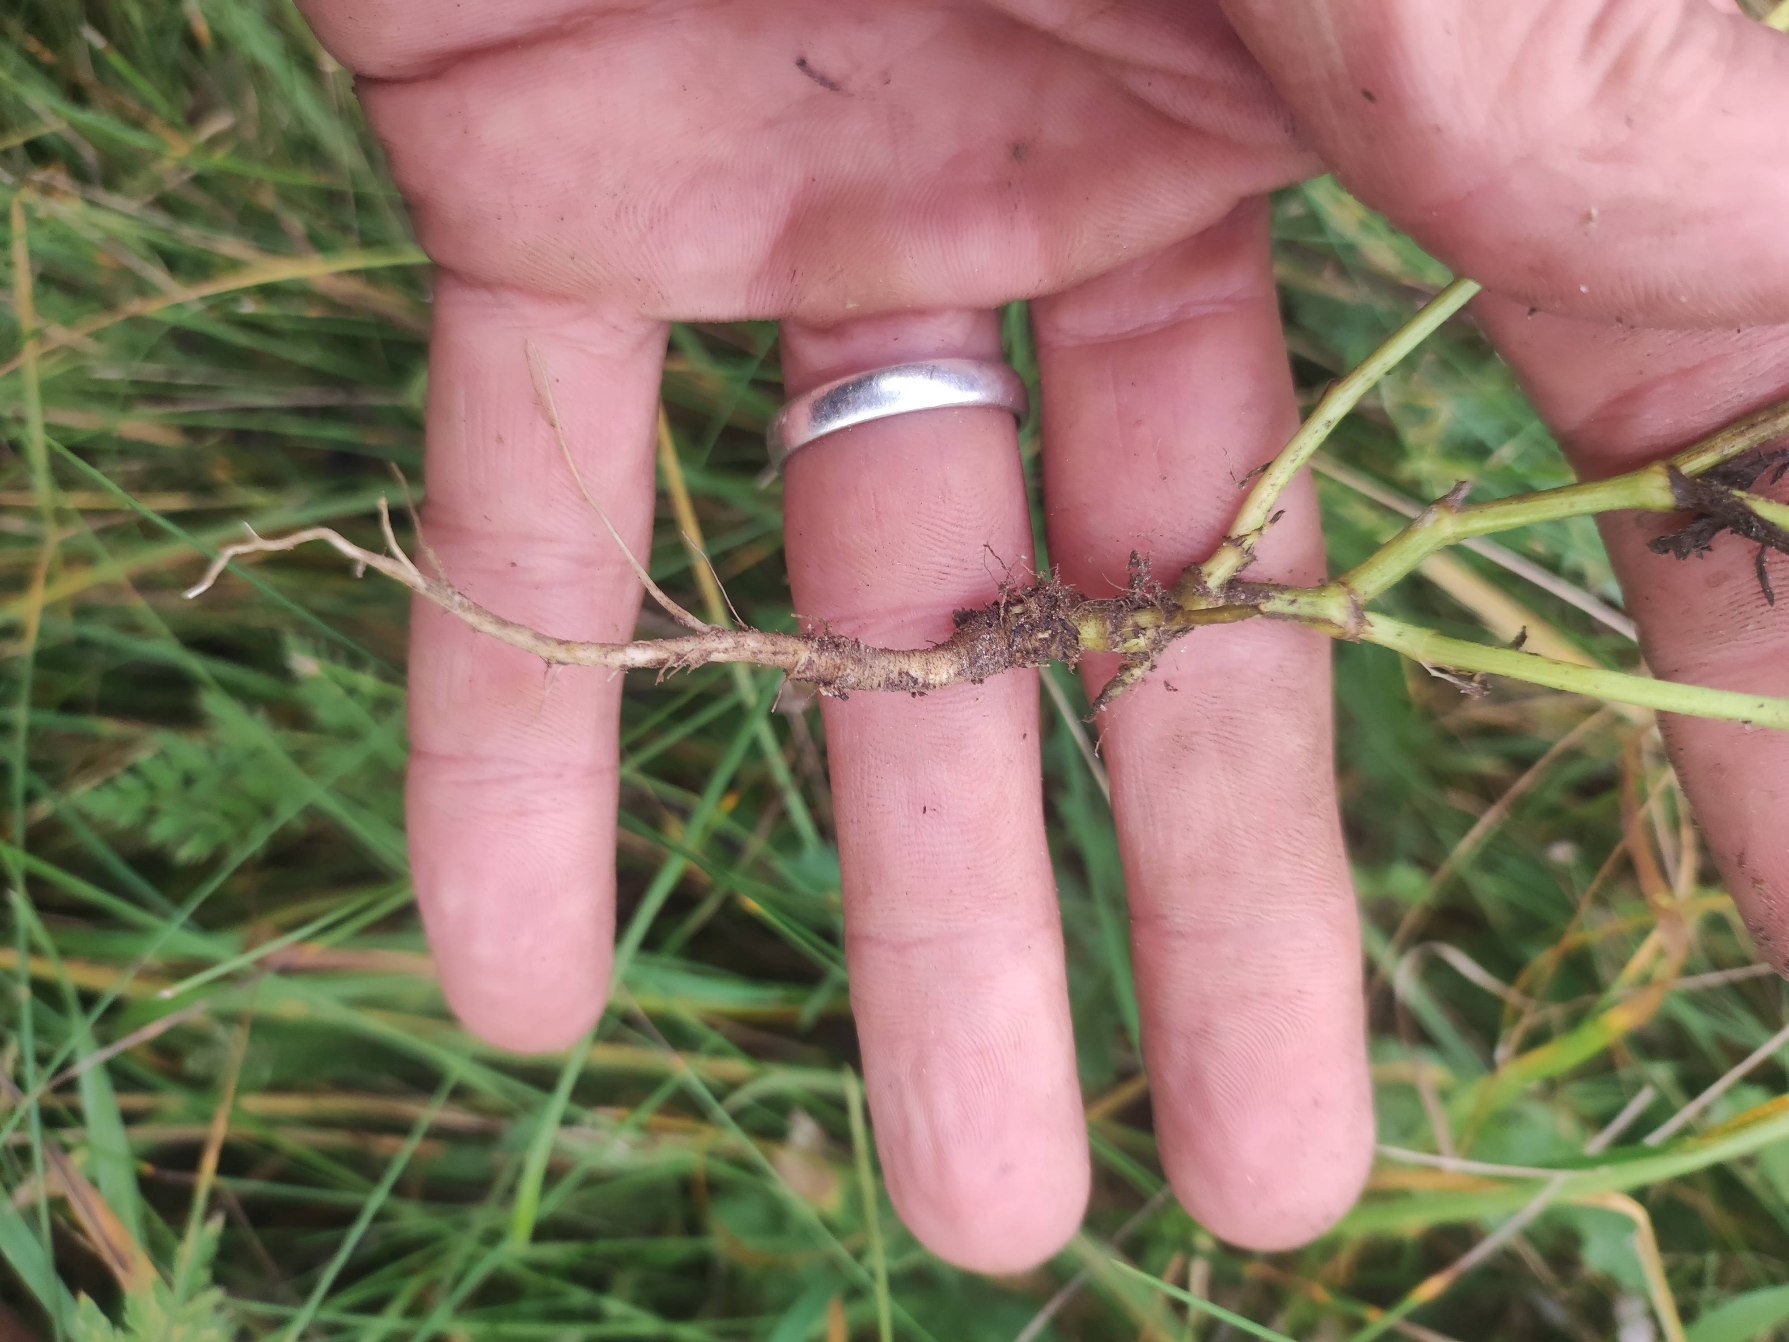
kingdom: Plantae
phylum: Tracheophyta
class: Magnoliopsida
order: Apiales
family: Apiaceae
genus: Torilis
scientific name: Torilis japonica
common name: Hvas randfrø
